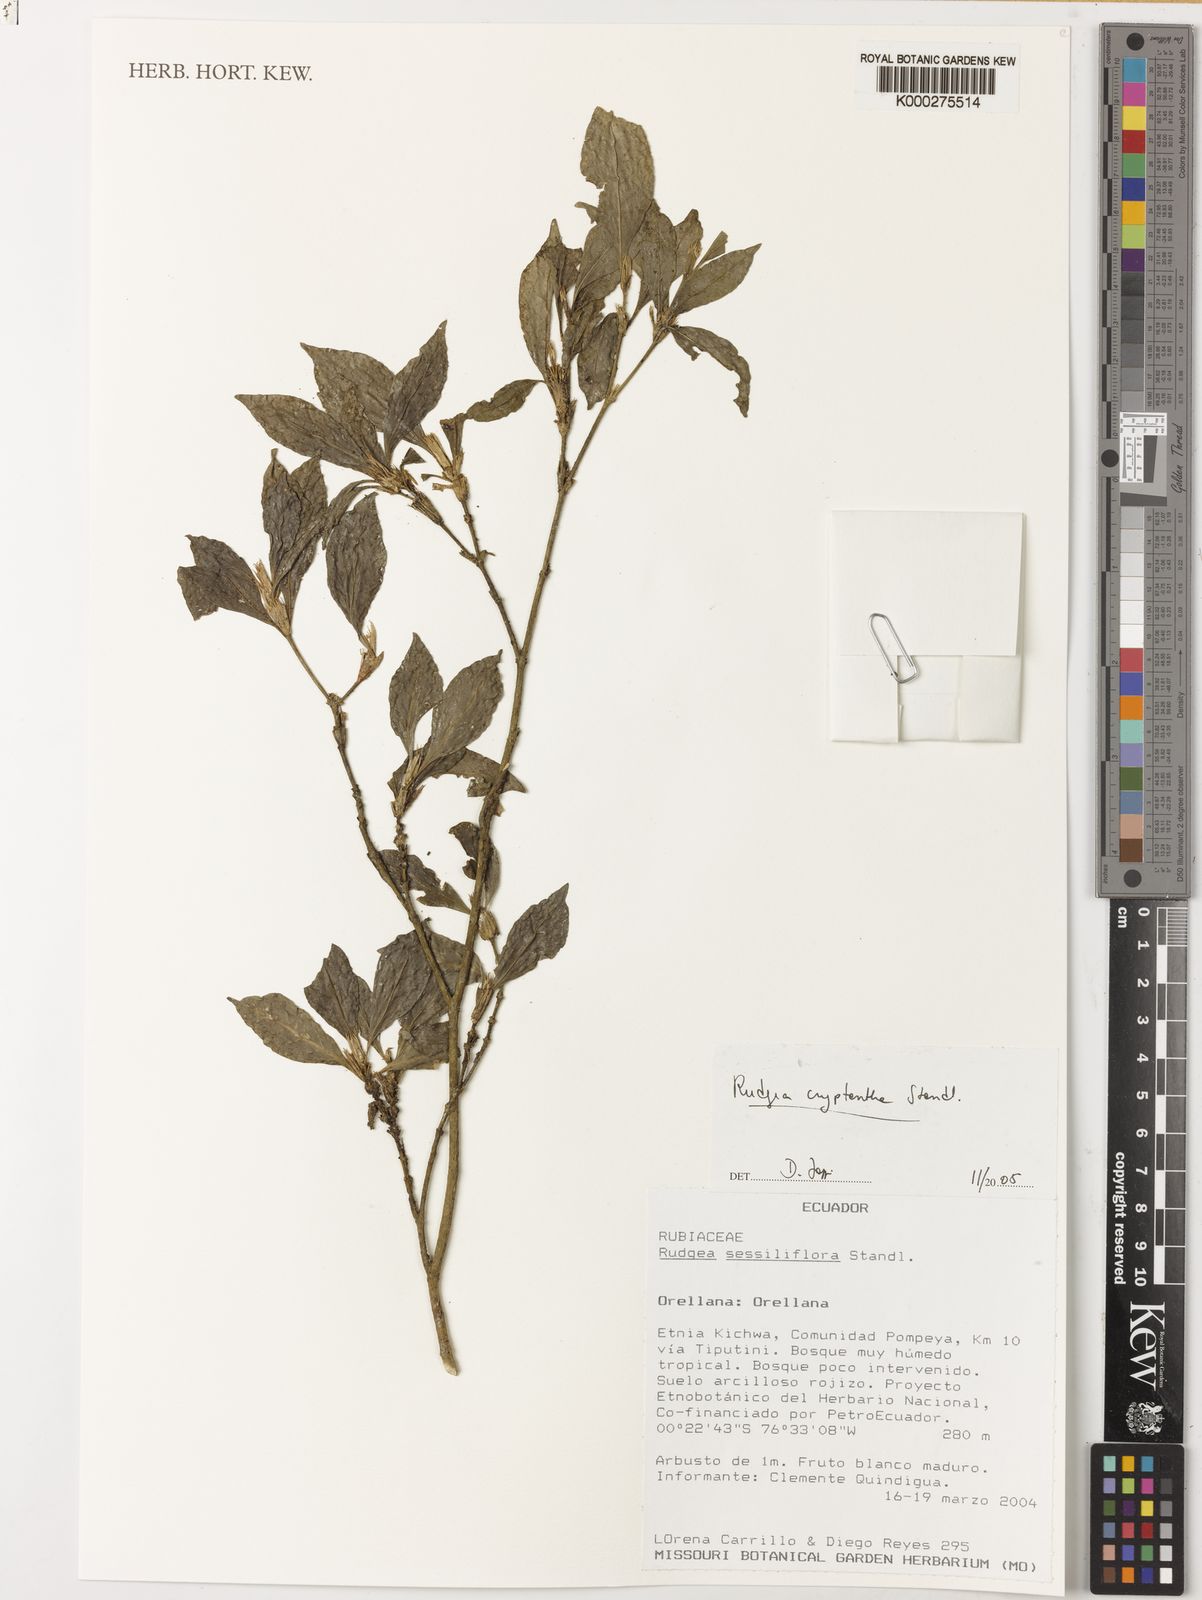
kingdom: Plantae
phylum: Tracheophyta
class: Magnoliopsida
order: Gentianales
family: Rubiaceae
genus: Rudgea
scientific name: Rudgea cryptantha
